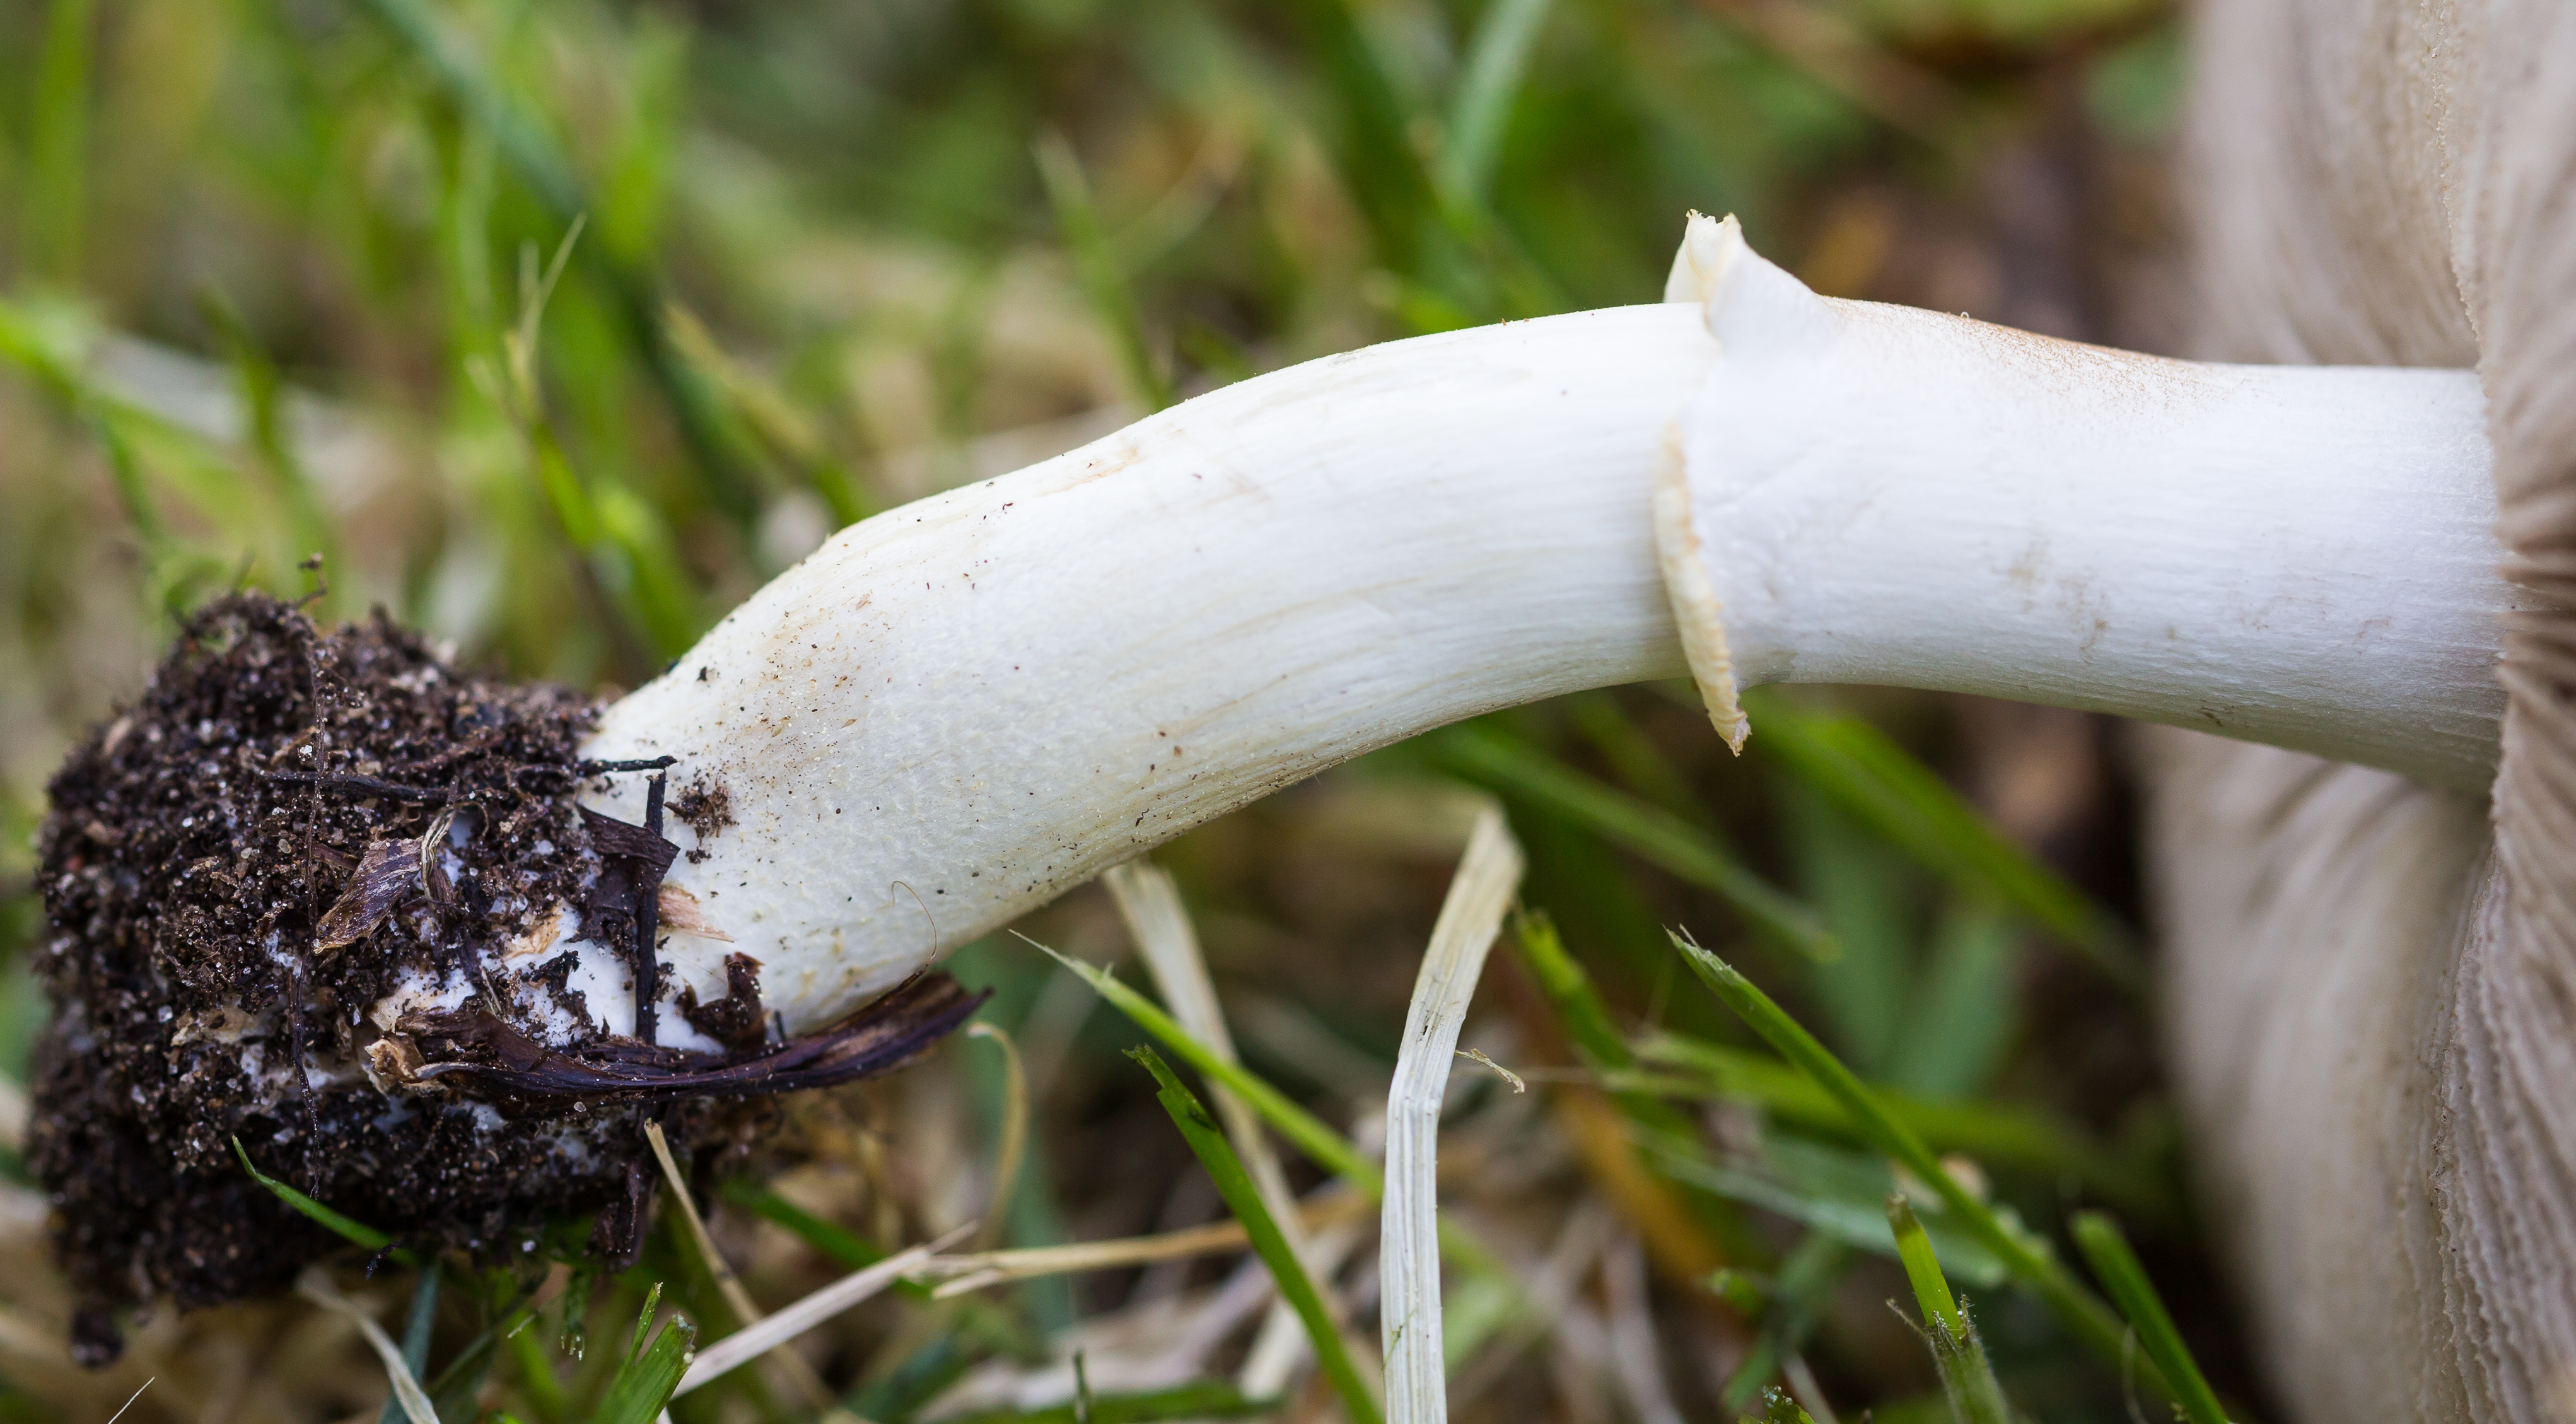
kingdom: Fungi
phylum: Basidiomycota
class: Agaricomycetes
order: Agaricales
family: Strophariaceae
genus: Agrocybe
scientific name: Agrocybe praecox
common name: Spring fieldcap
